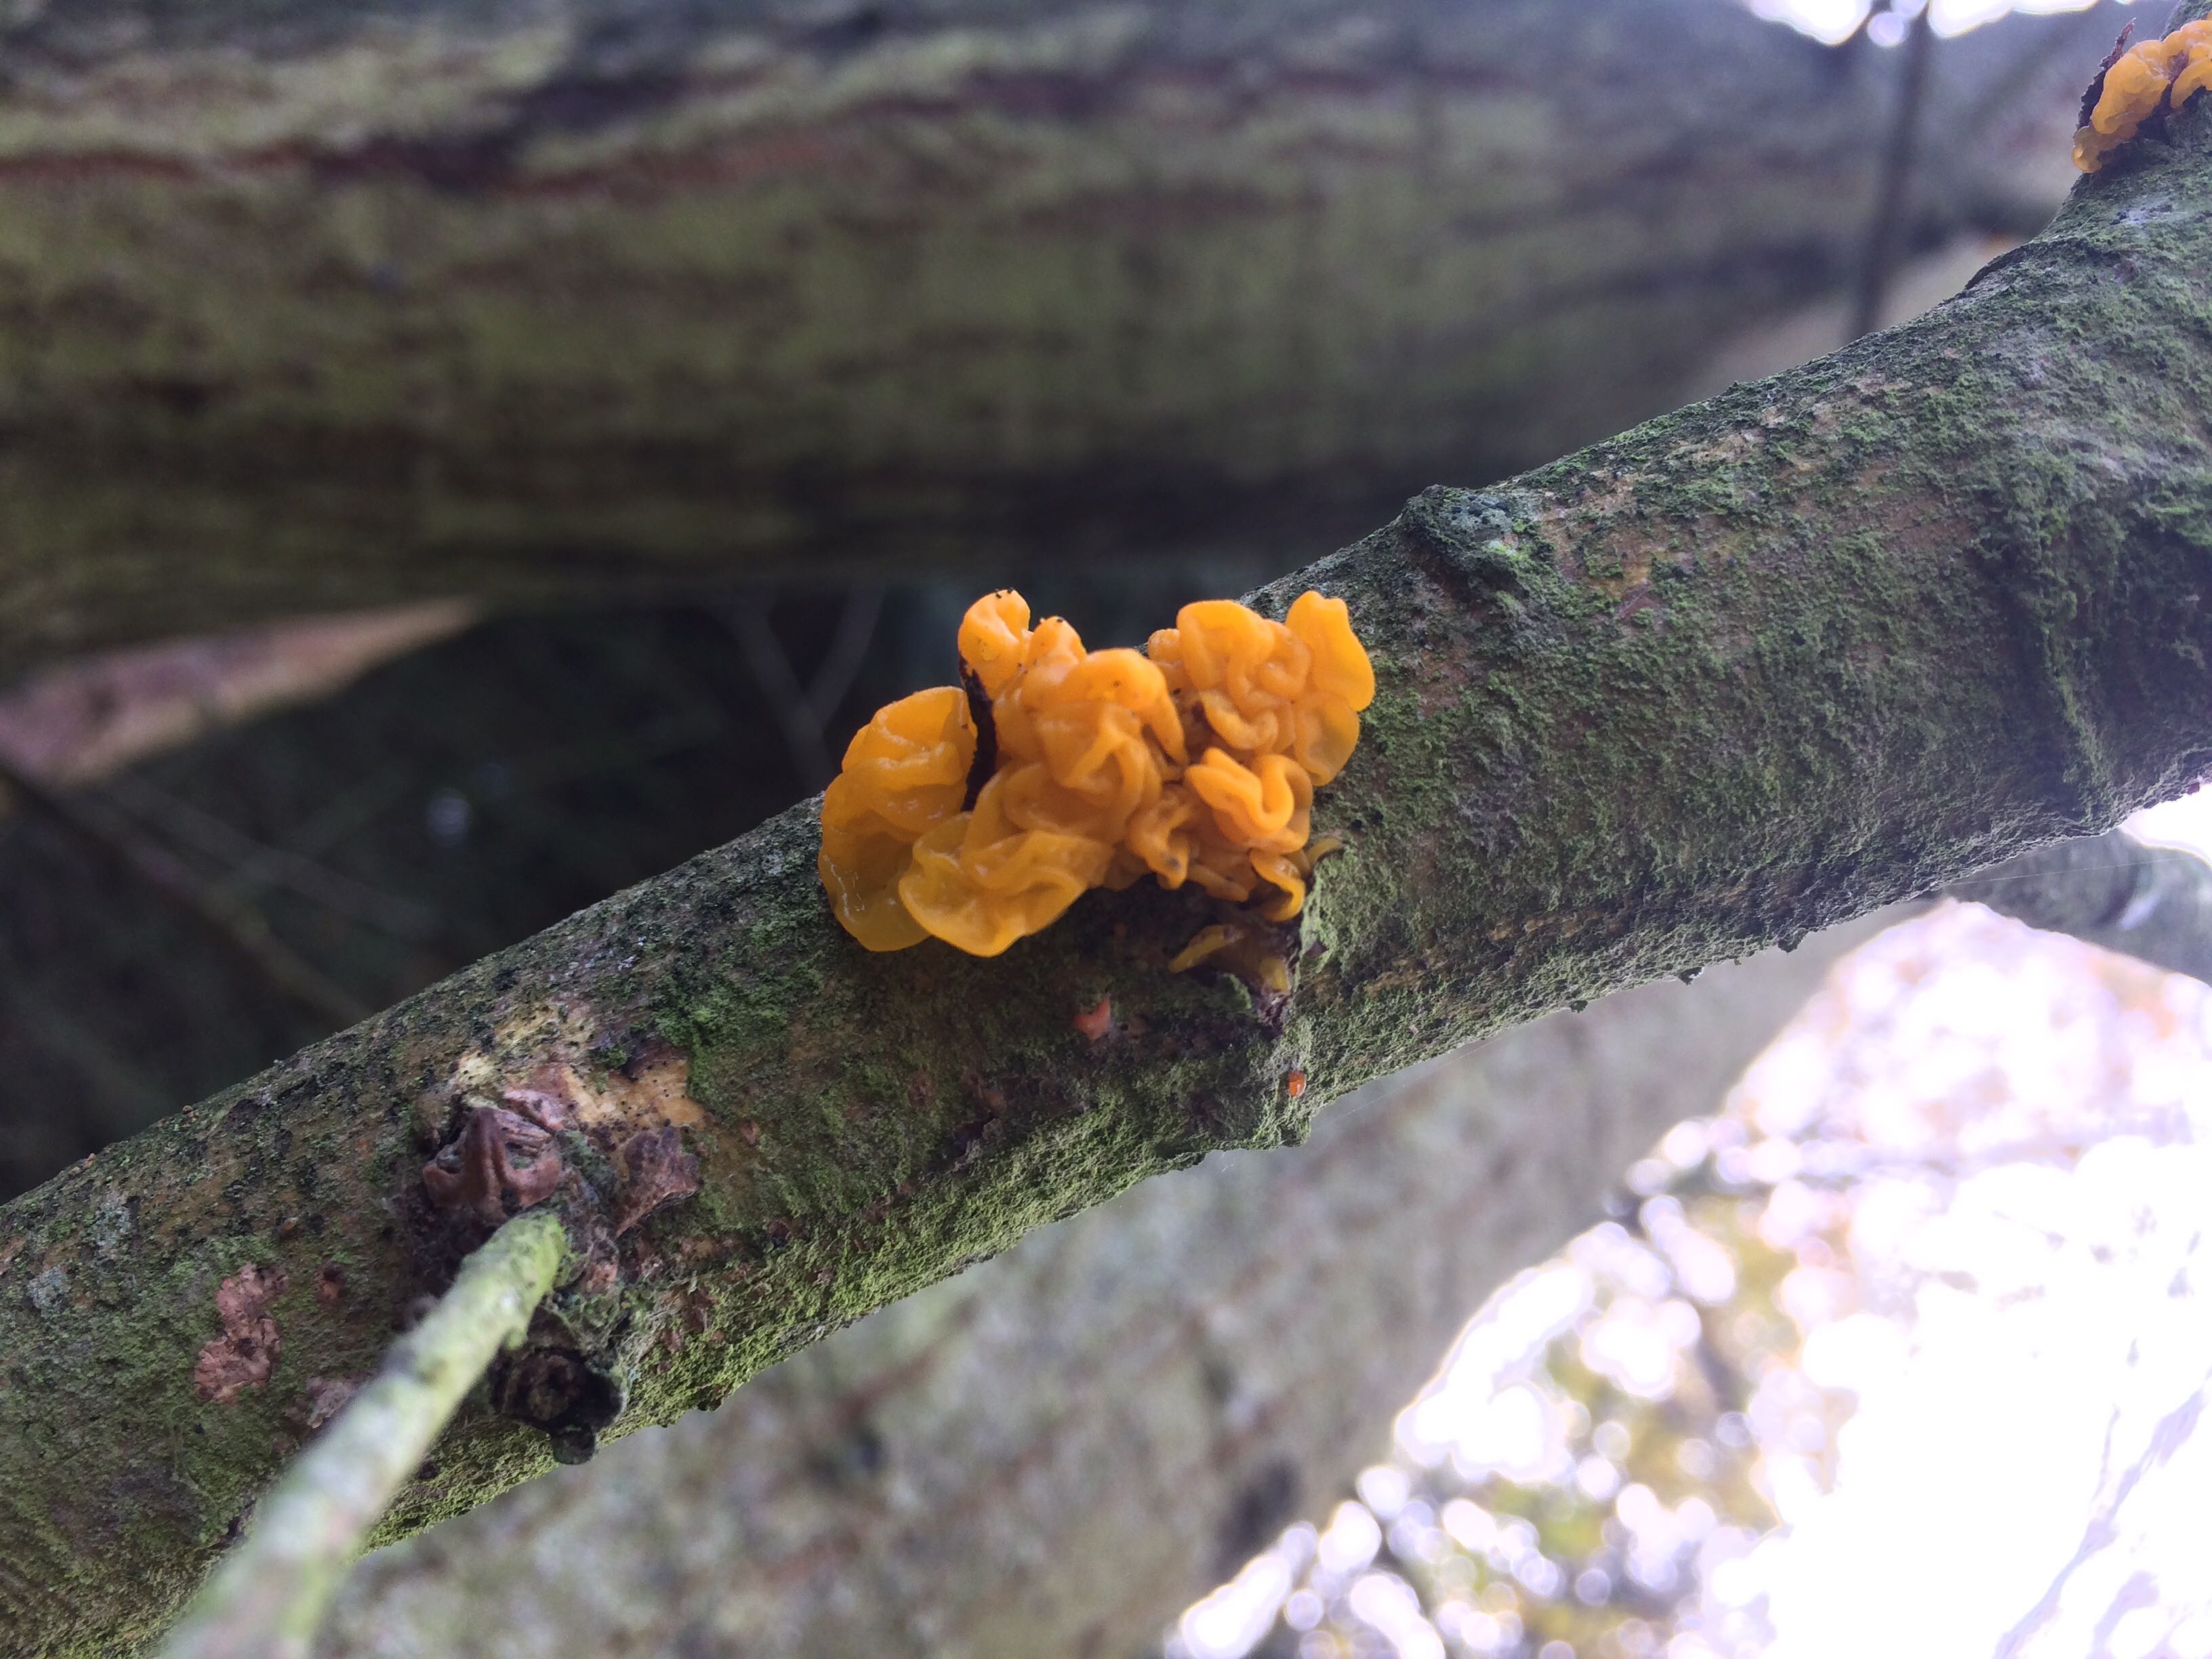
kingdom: Fungi
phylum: Basidiomycota
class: Tremellomycetes
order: Tremellales
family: Tremellaceae
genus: Tremella
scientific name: Tremella mesenterica
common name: gul bævresvamp
